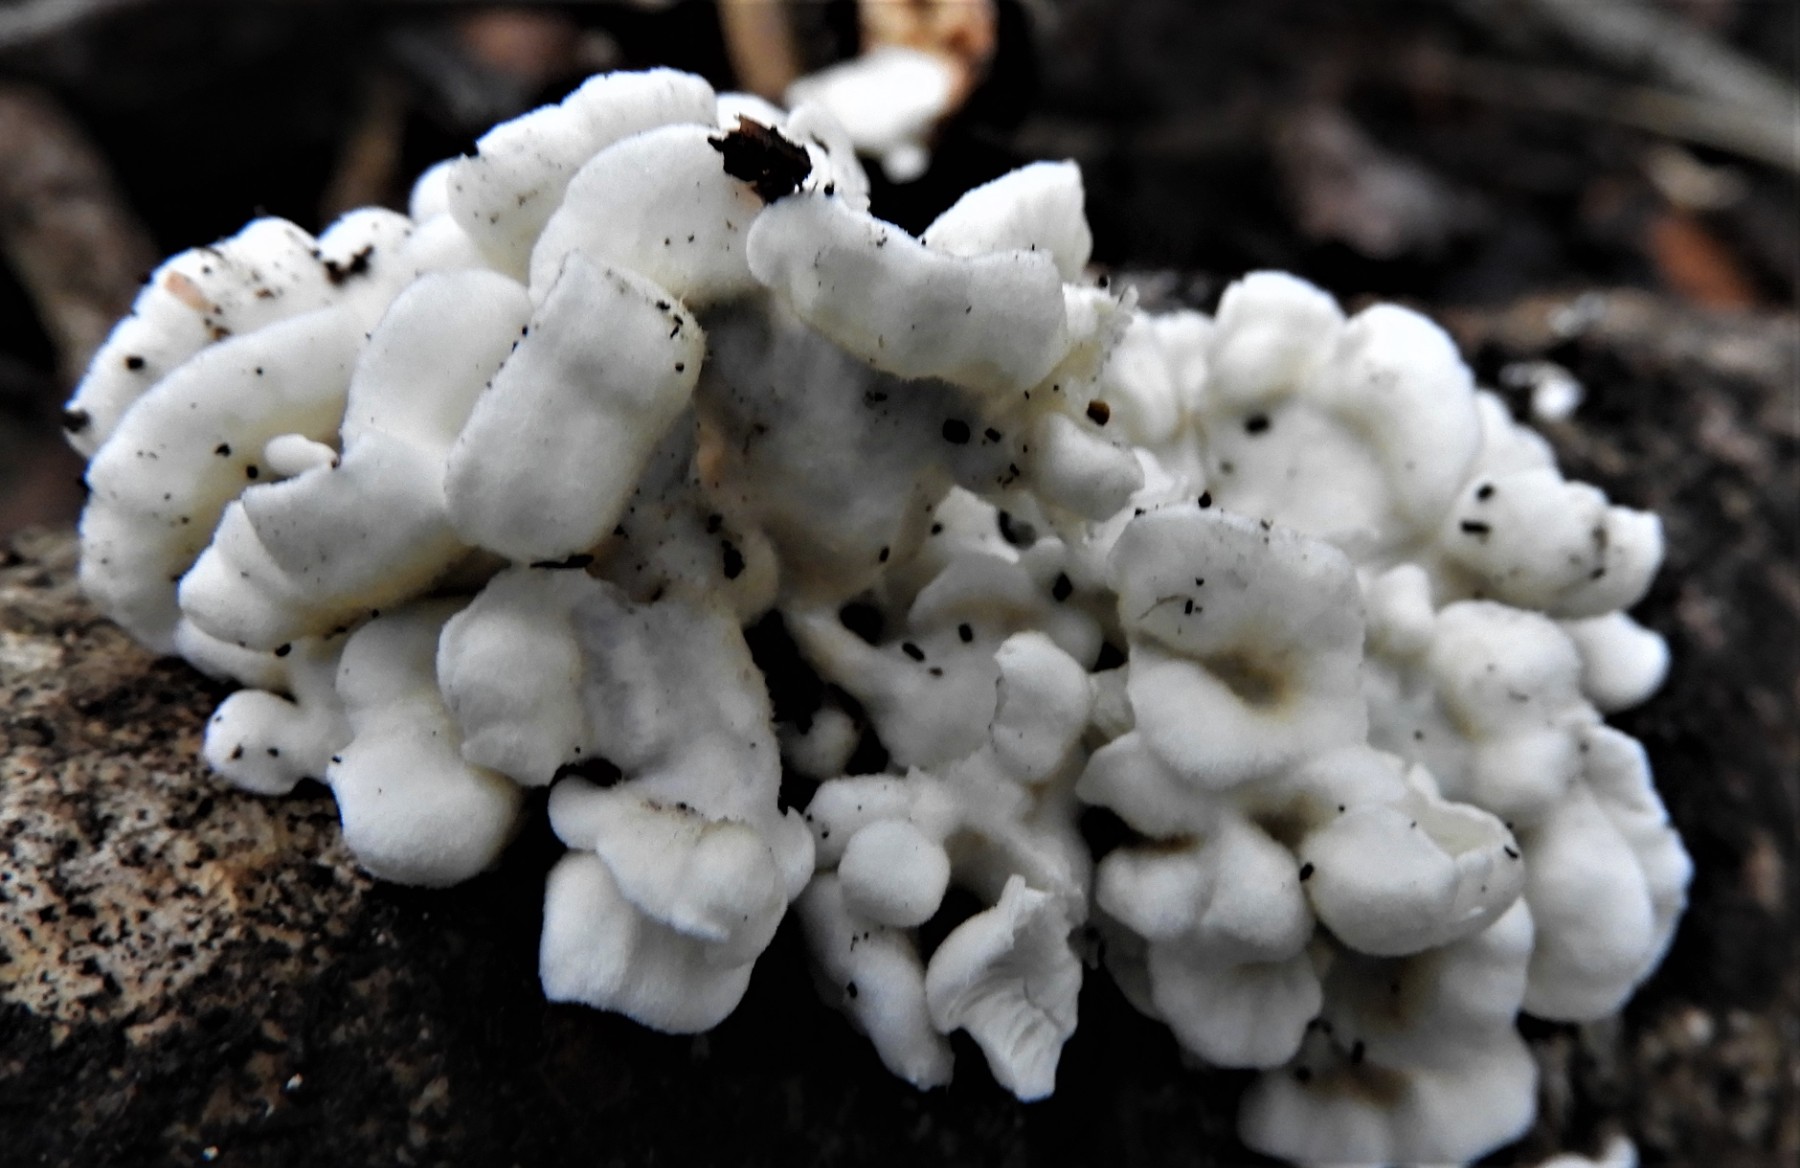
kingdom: Fungi
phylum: Basidiomycota
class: Agaricomycetes
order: Amylocorticiales
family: Amylocorticiaceae
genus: Plicaturopsis
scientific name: Plicaturopsis crispa
